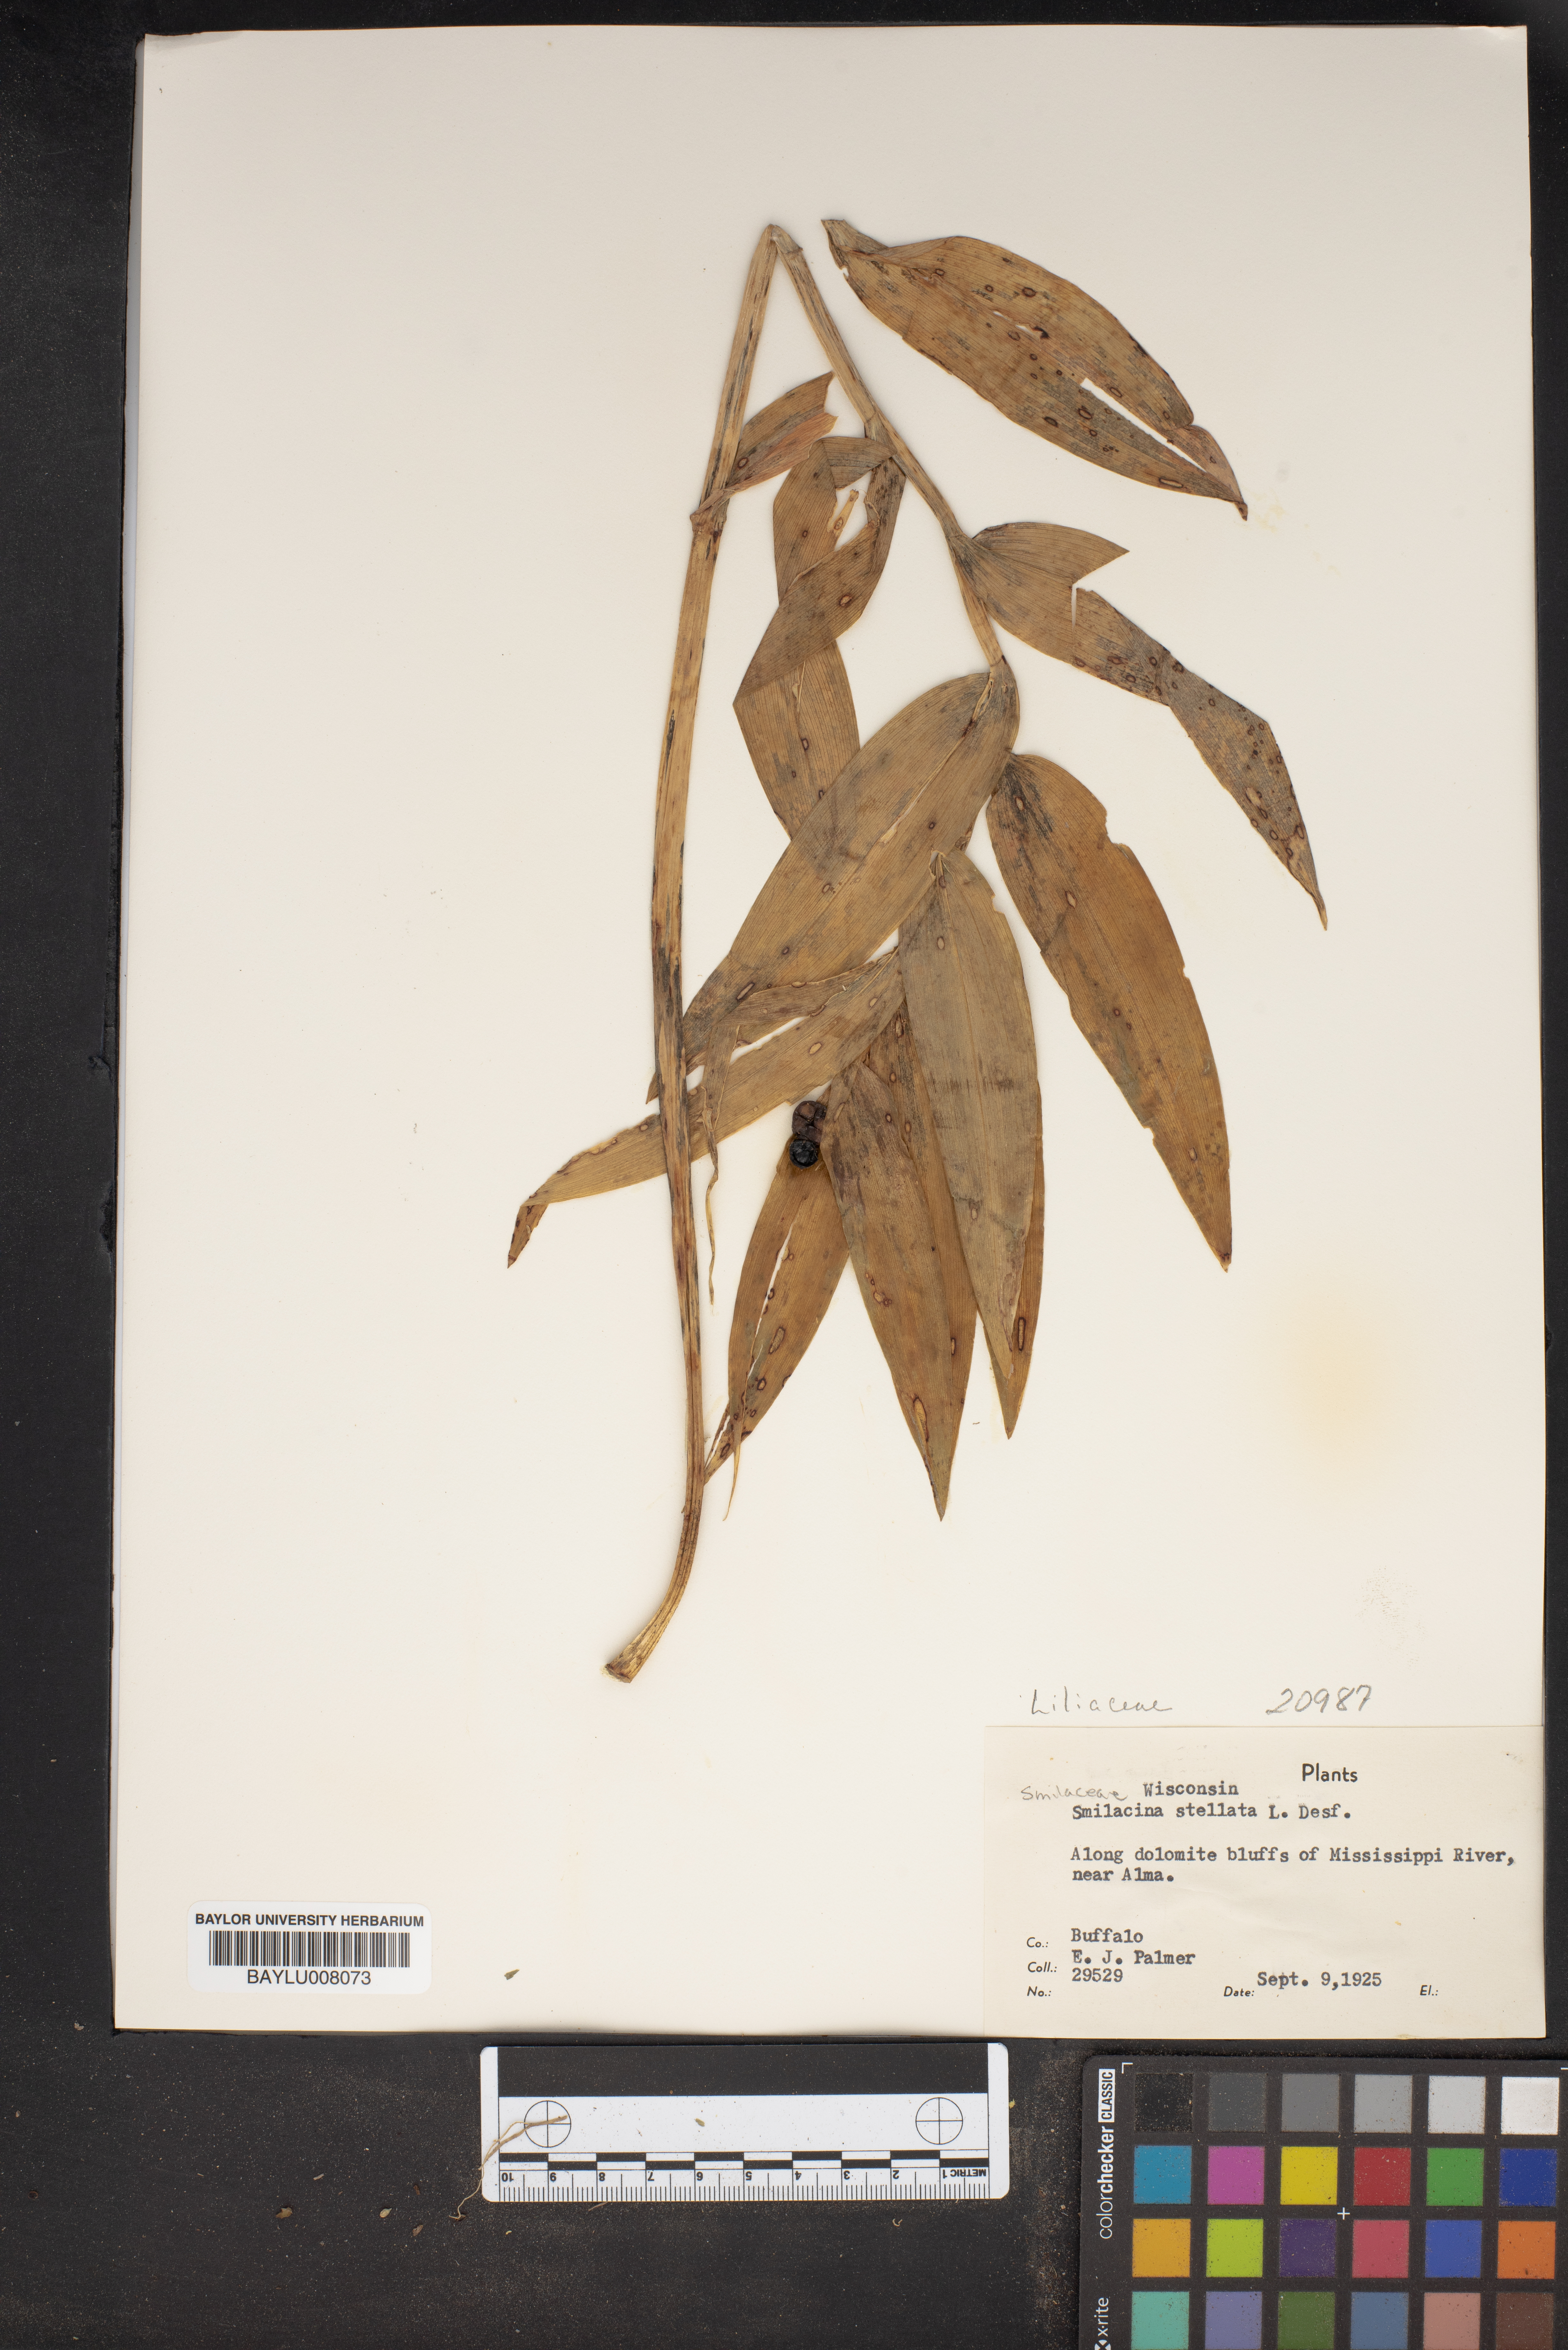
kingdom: Plantae
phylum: Tracheophyta
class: Liliopsida
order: Asparagales
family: Asparagaceae
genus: Maianthemum
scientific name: Maianthemum stellatum
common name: Little false solomon's seal
